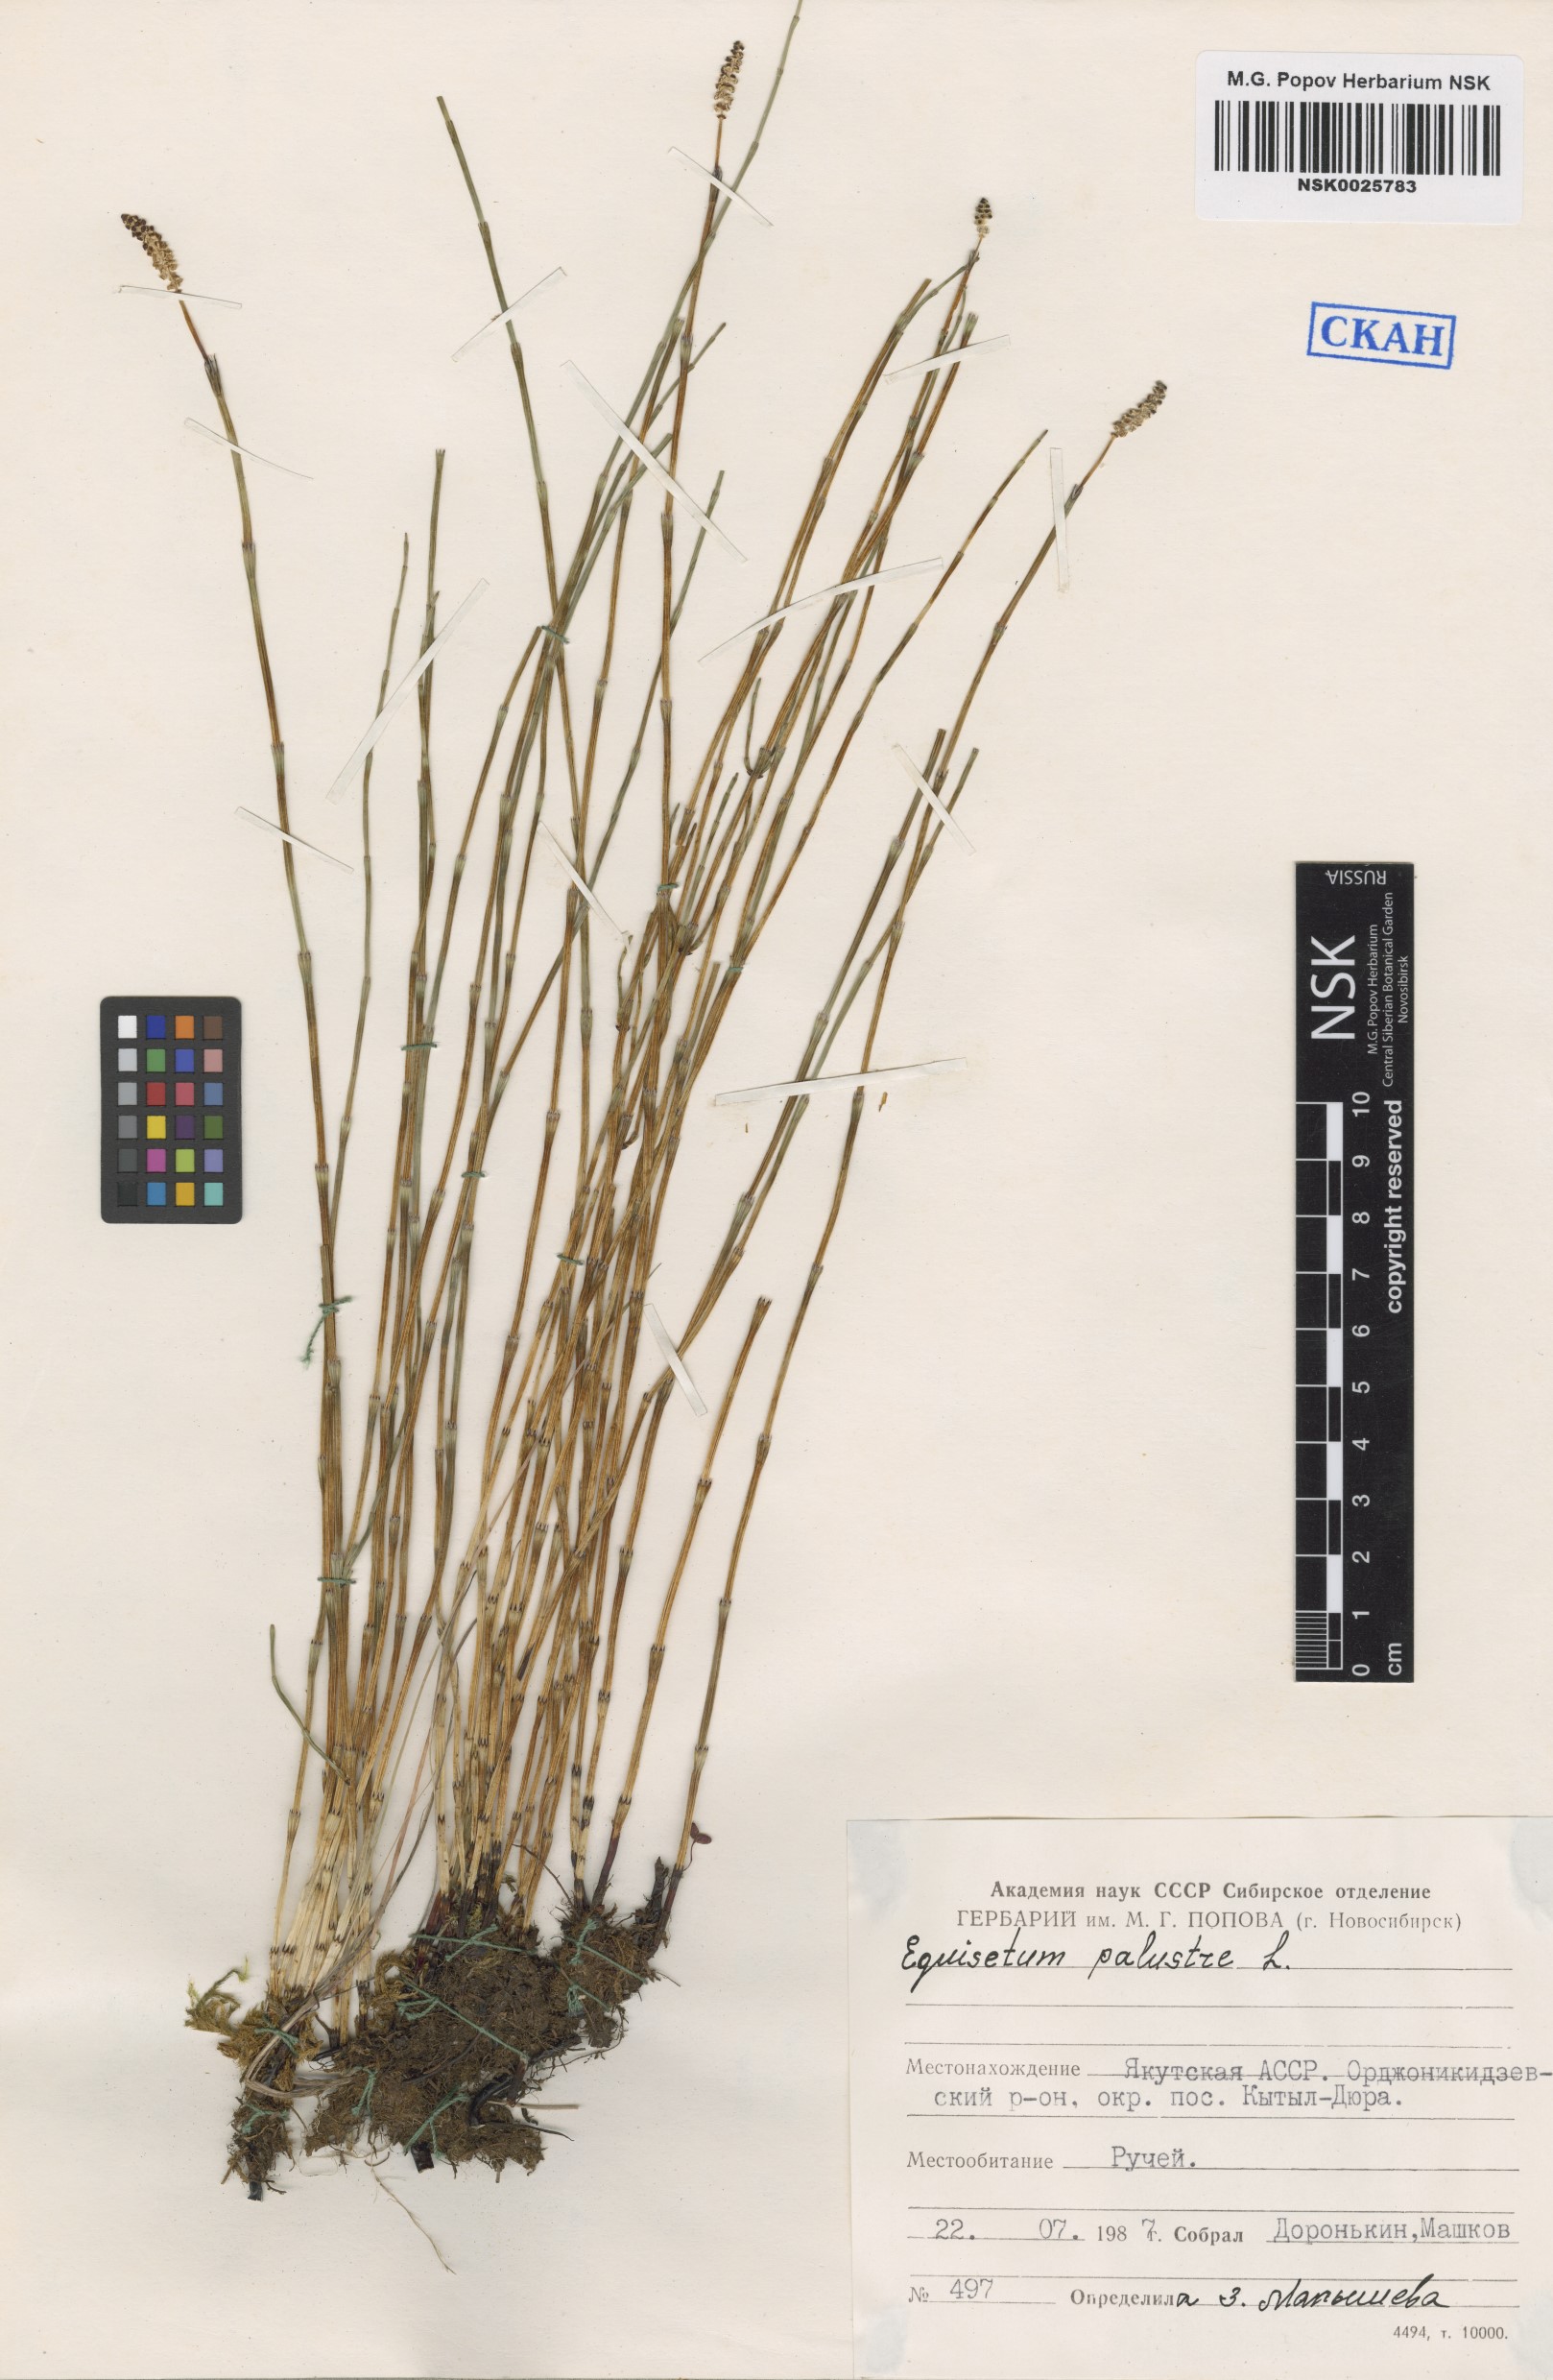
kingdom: Plantae
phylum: Tracheophyta
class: Polypodiopsida
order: Equisetales
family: Equisetaceae
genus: Equisetum
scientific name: Equisetum palustre
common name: Marsh horsetail
